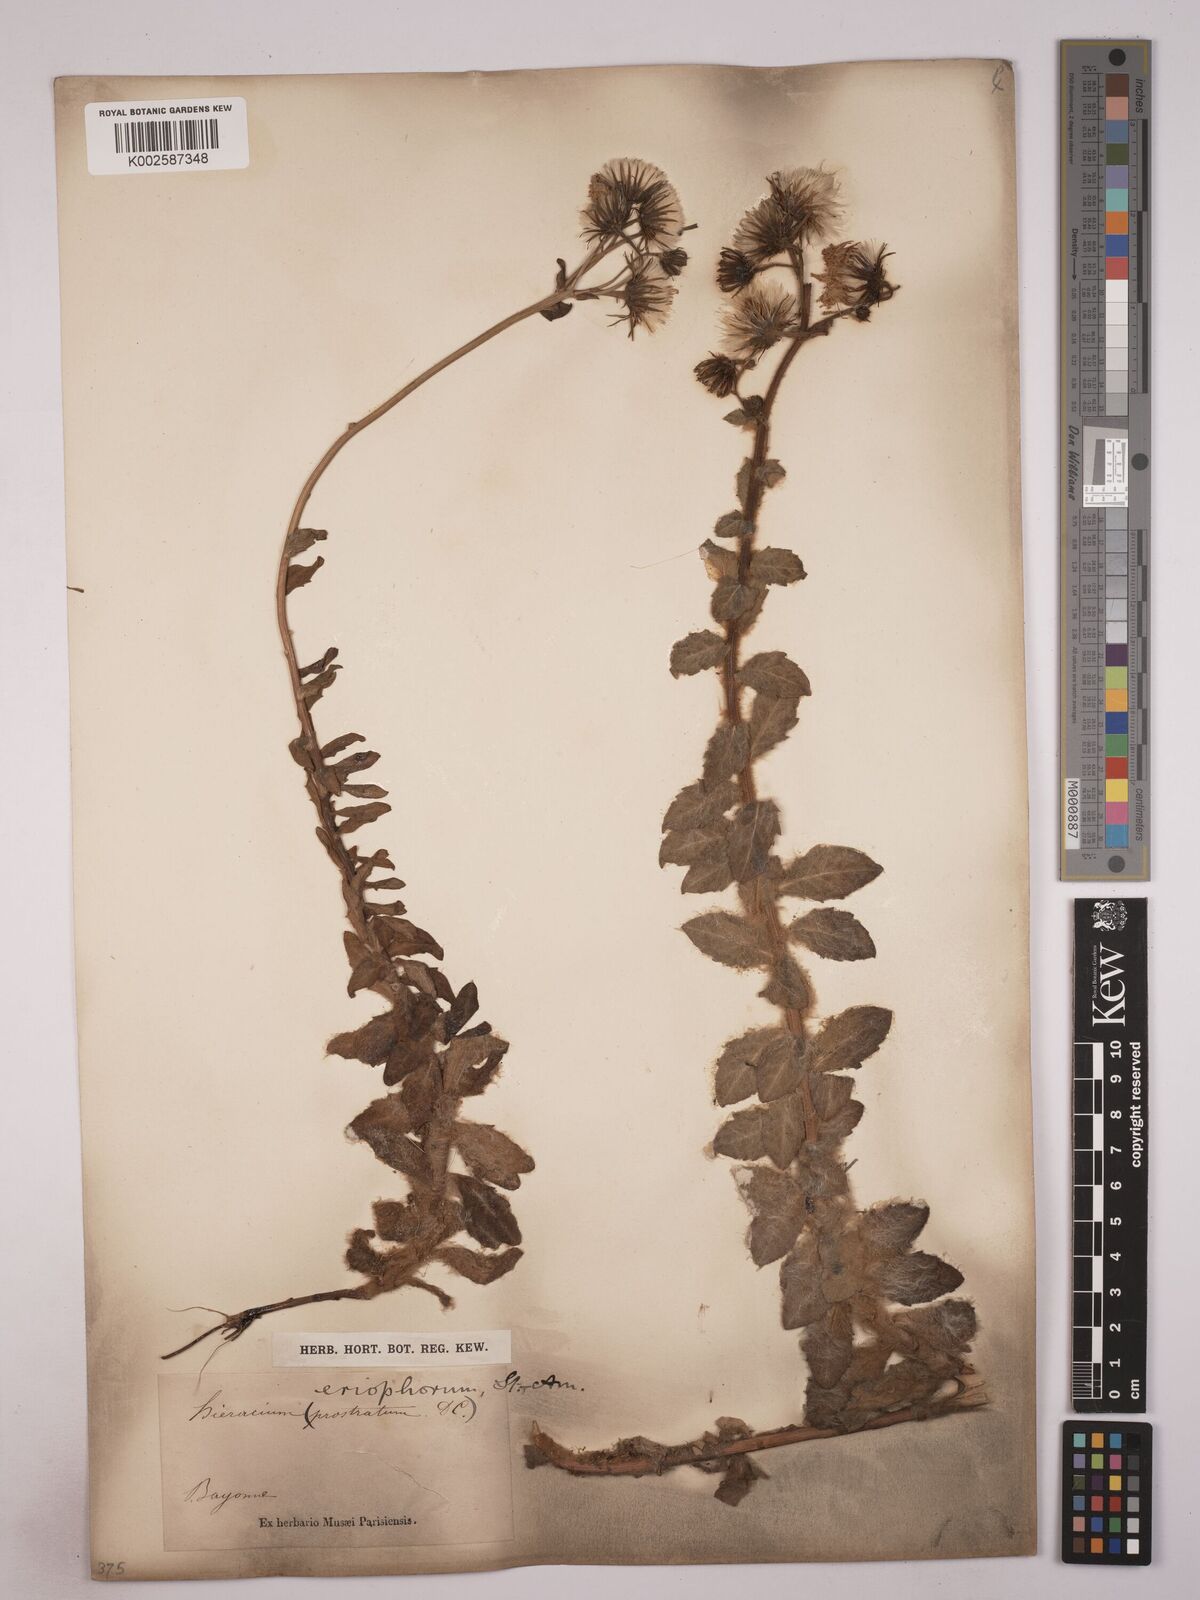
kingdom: Plantae
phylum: Tracheophyta
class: Magnoliopsida
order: Asterales
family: Asteraceae
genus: Hieracium
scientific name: Hieracium prostratum
